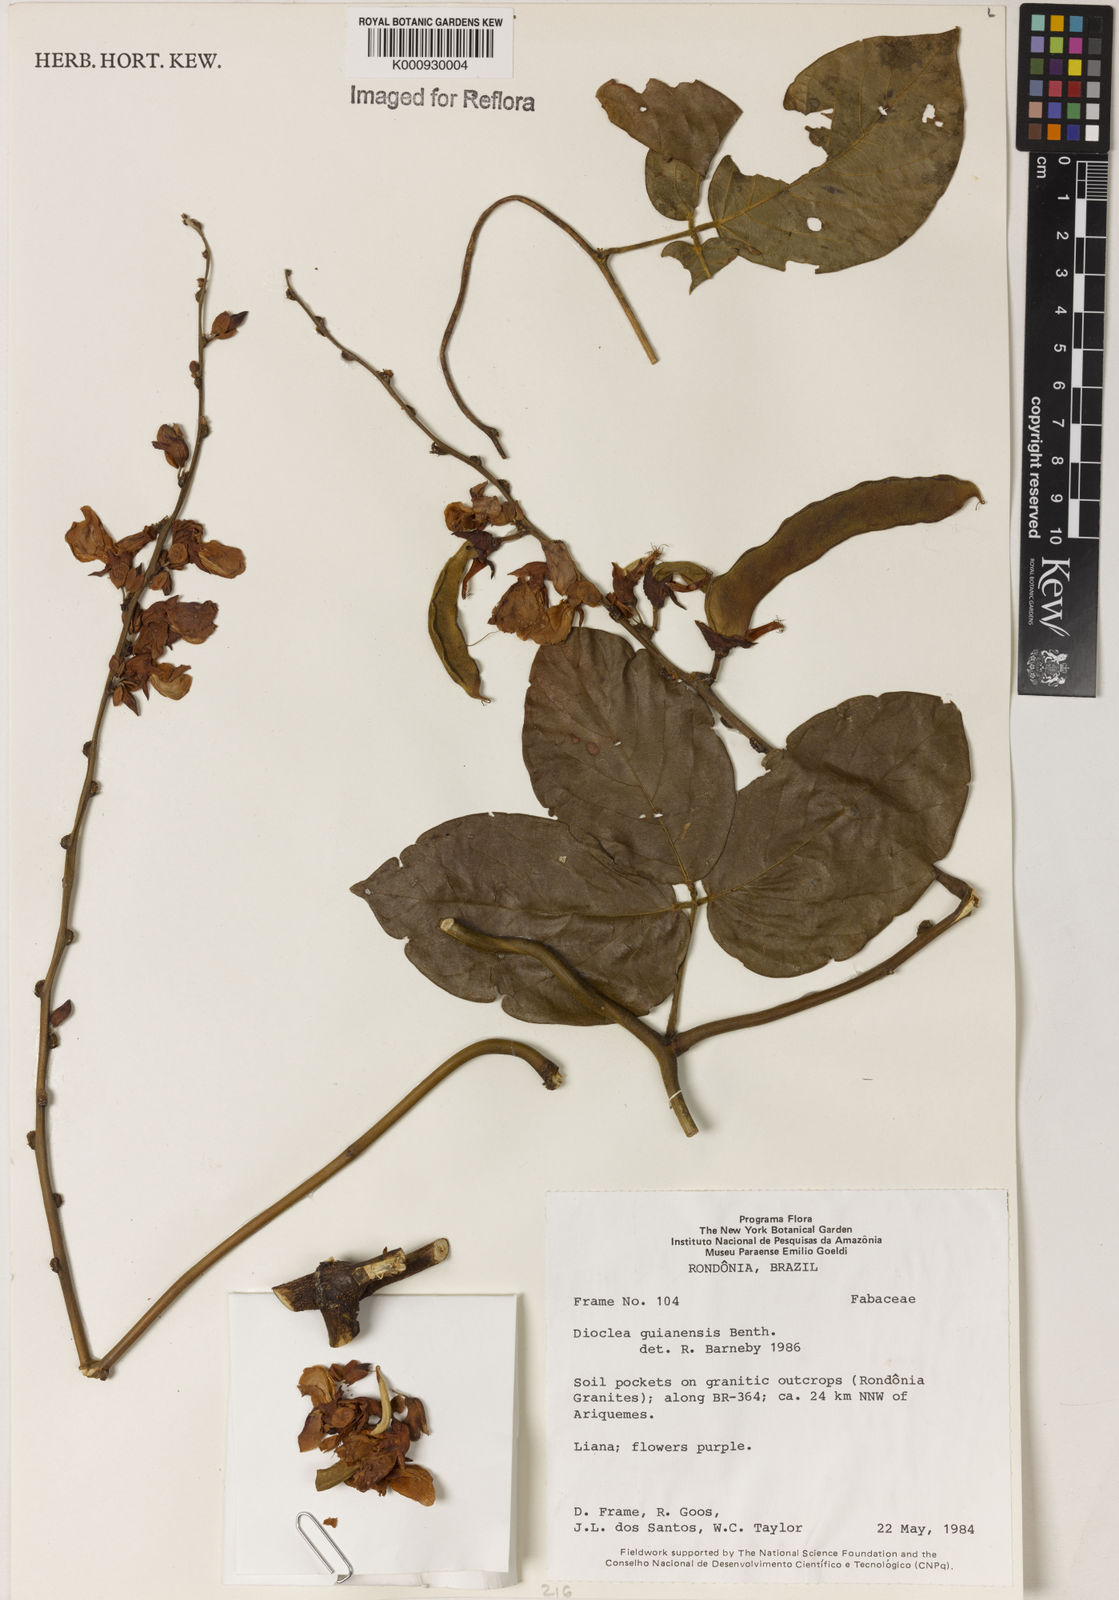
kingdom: Plantae
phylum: Tracheophyta
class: Magnoliopsida
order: Fabales
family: Fabaceae
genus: Dioclea
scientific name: Dioclea guianensis
